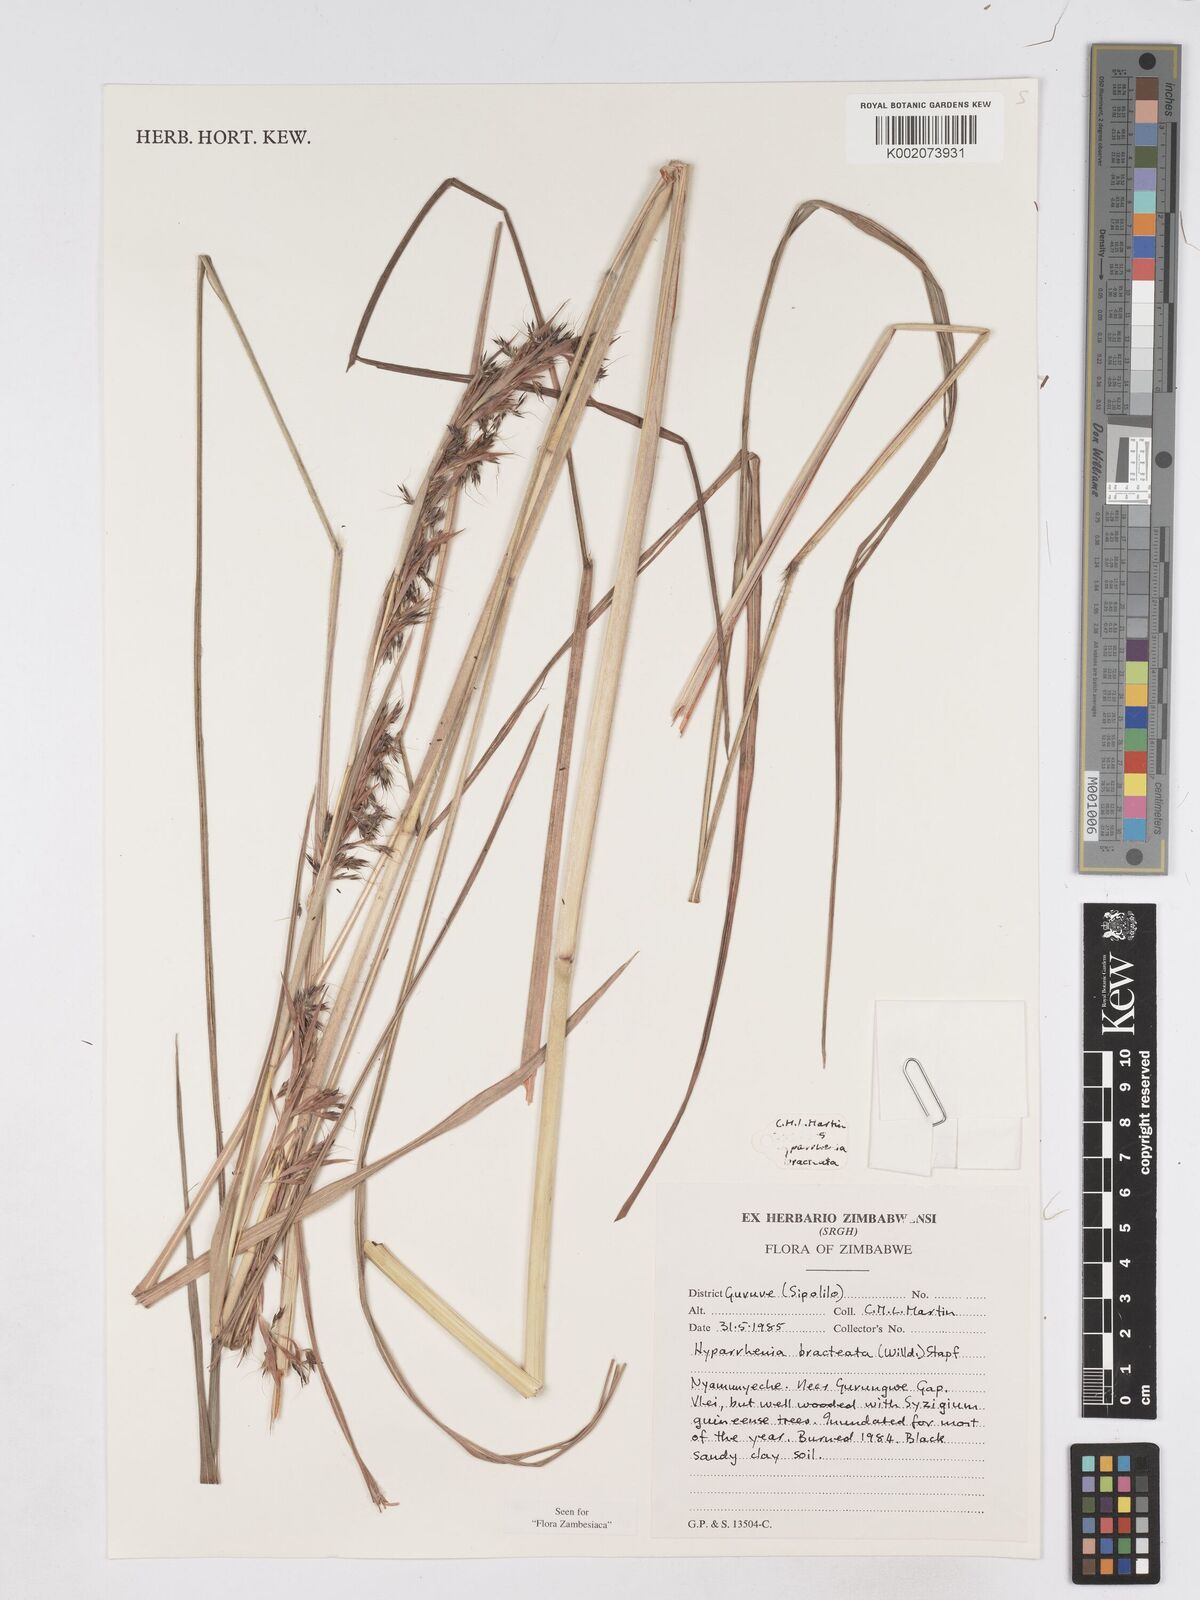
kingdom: Plantae
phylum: Tracheophyta
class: Liliopsida
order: Poales
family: Poaceae
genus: Hyparrhenia
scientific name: Hyparrhenia bracteata
